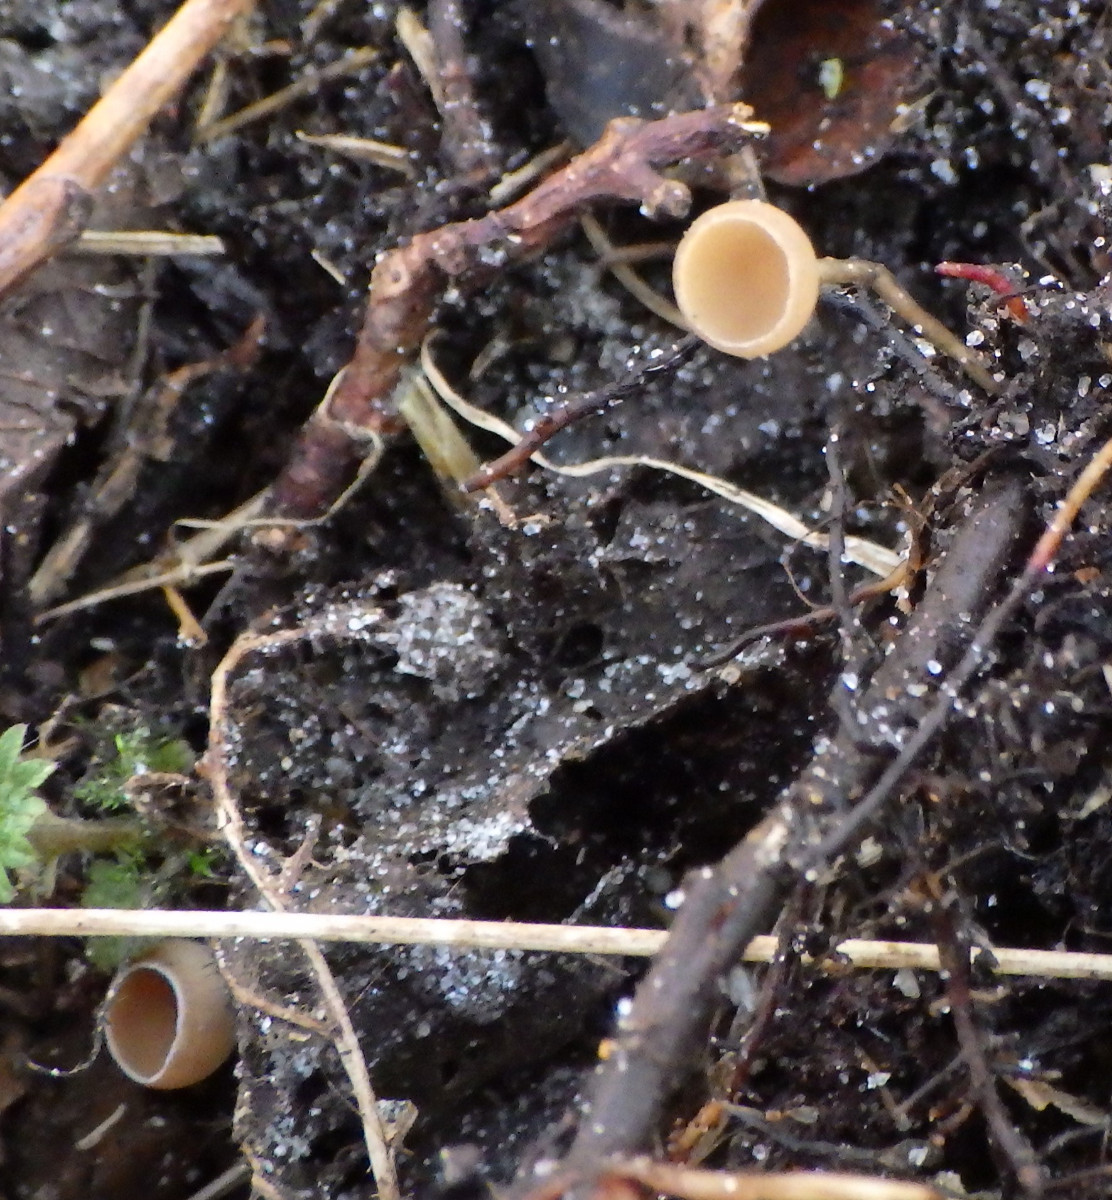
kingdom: Fungi
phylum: Ascomycota
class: Leotiomycetes
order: Helotiales
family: Sclerotiniaceae
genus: Ciboria
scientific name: Ciboria amentacea
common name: ellerakle-knoldskive
